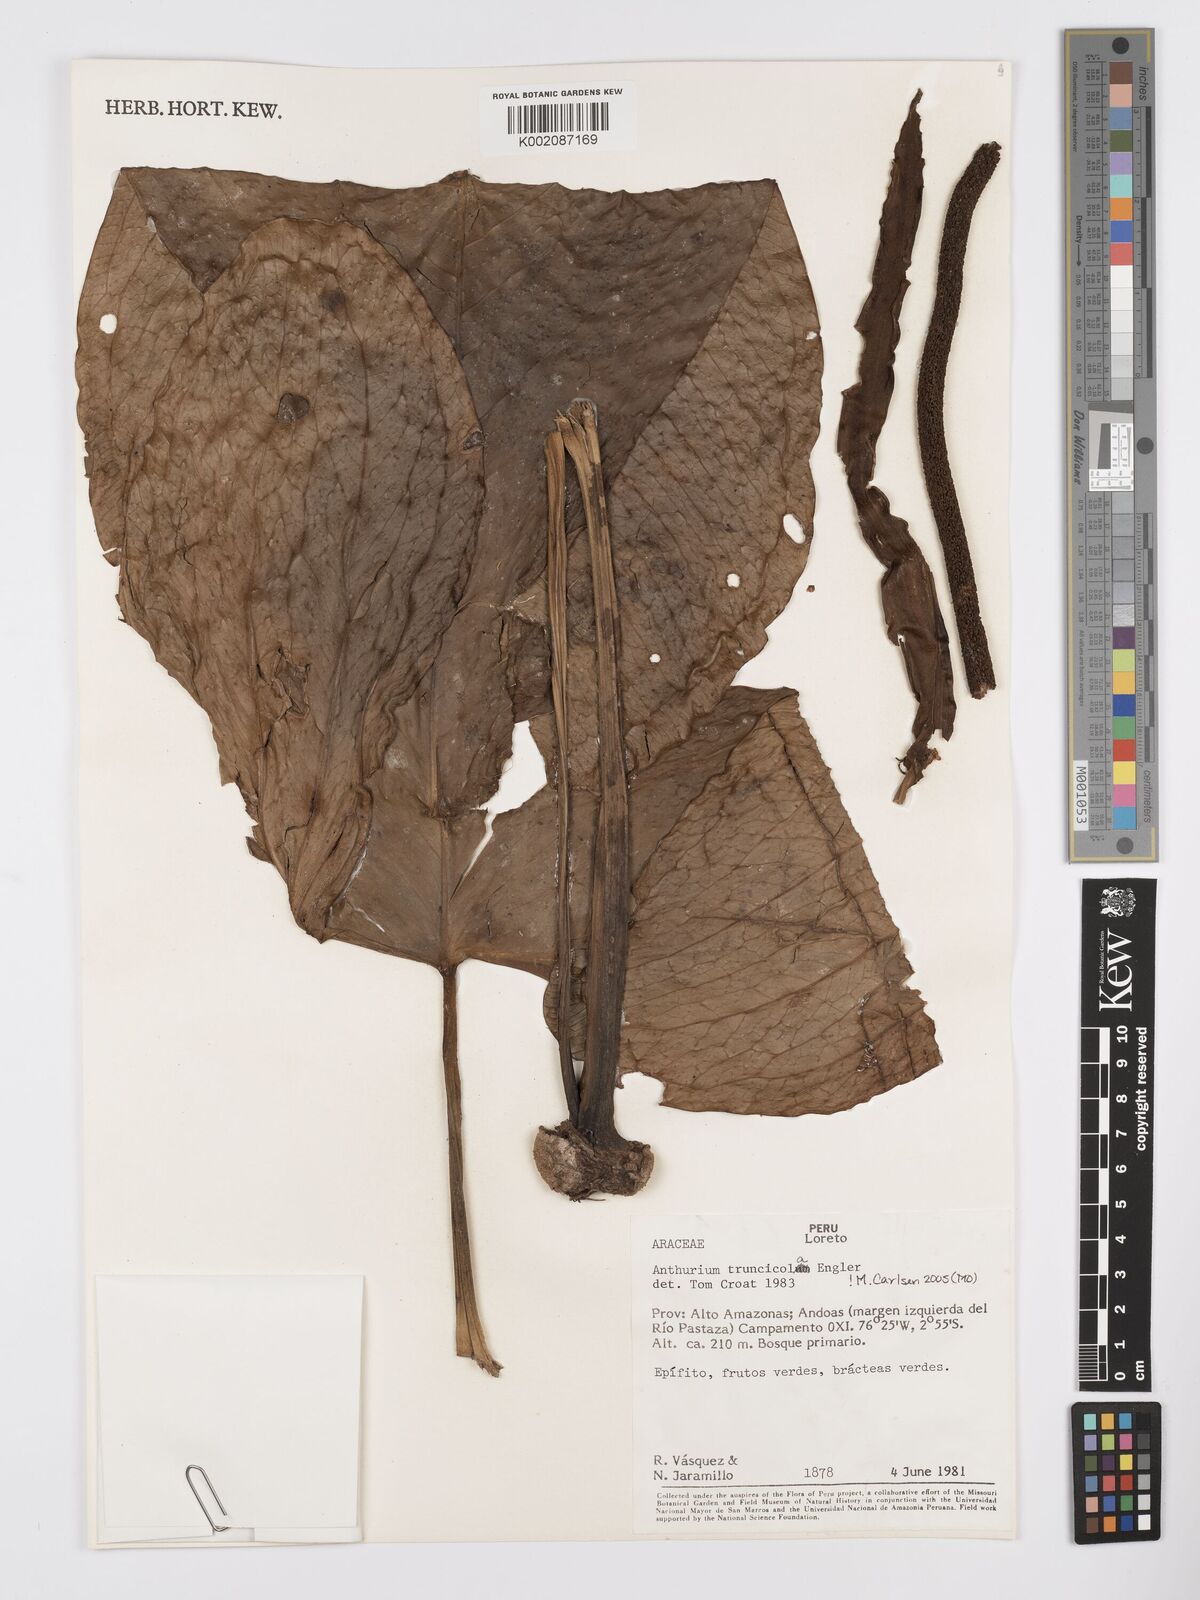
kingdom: Plantae
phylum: Tracheophyta
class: Liliopsida
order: Alismatales
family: Araceae
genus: Anthurium
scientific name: Anthurium truncicola
